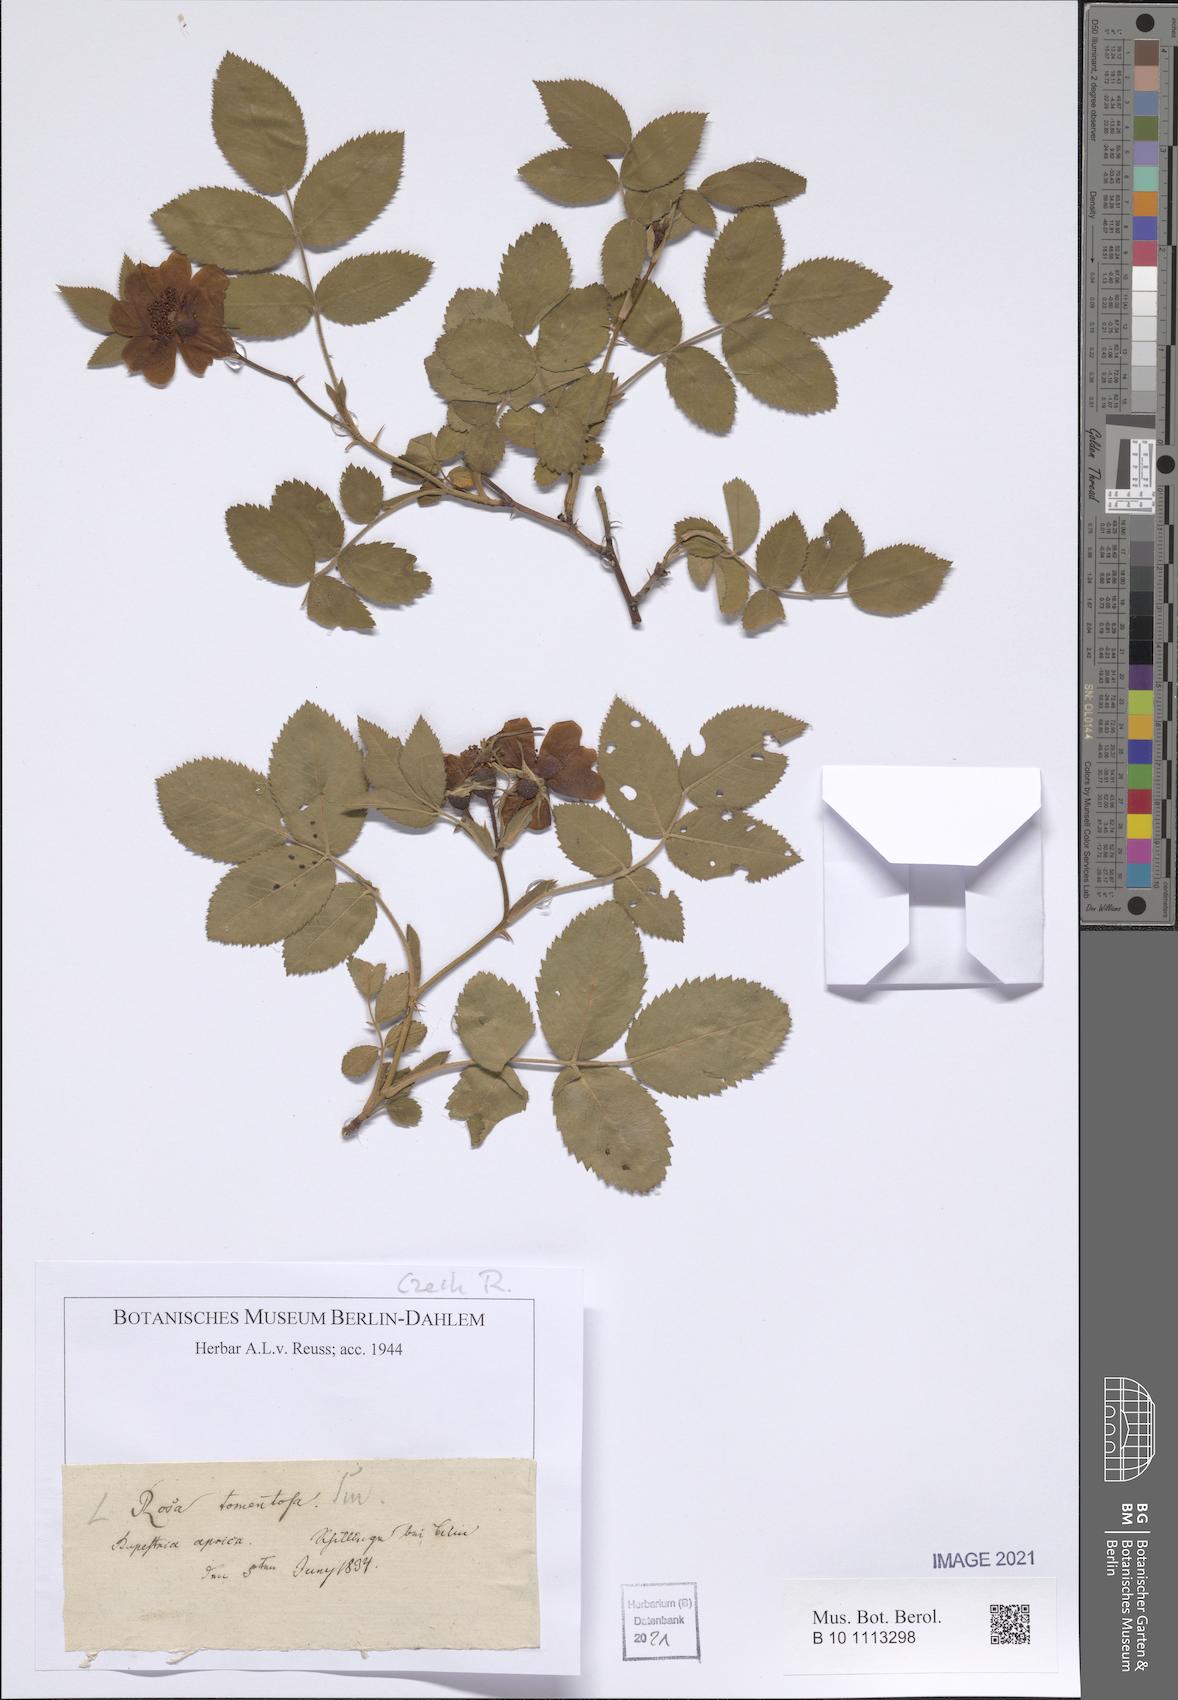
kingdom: Plantae
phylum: Tracheophyta
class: Magnoliopsida
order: Rosales
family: Rosaceae
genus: Rosa
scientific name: Rosa tomentosa
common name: Downy rose
